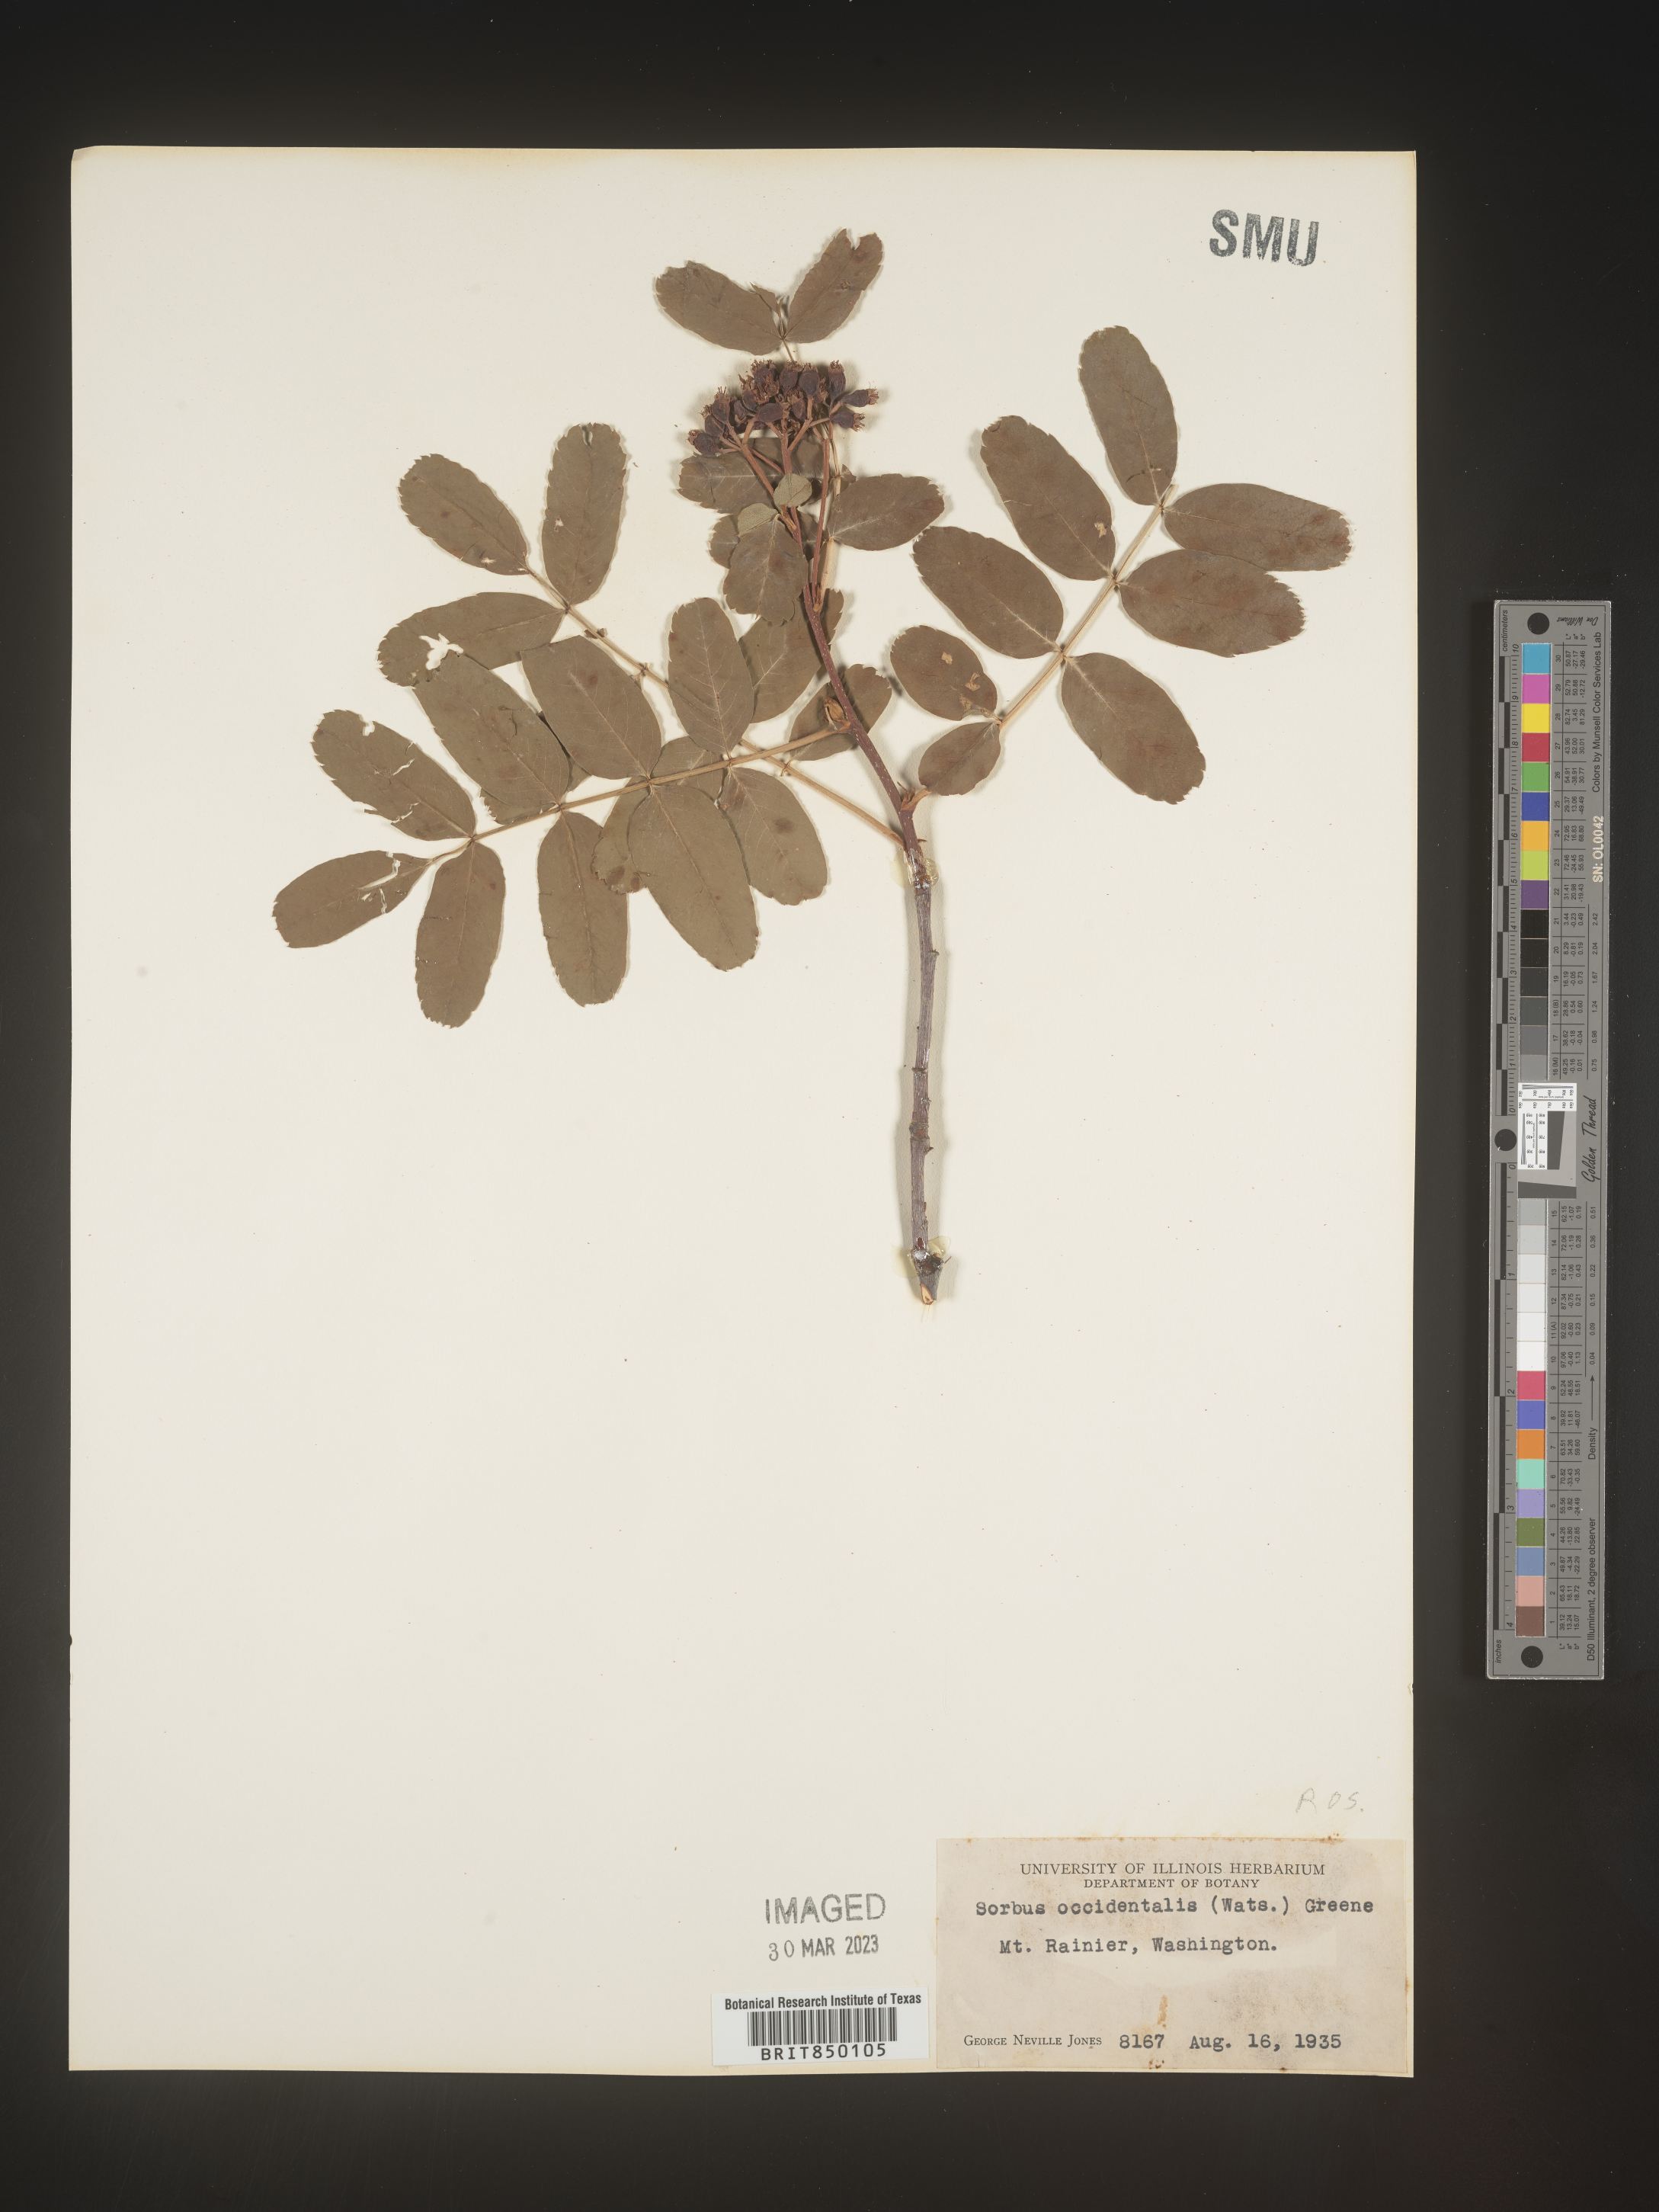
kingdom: Plantae
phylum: Tracheophyta
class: Magnoliopsida
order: Rosales
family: Rosaceae
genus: Sorbus
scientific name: Sorbus
